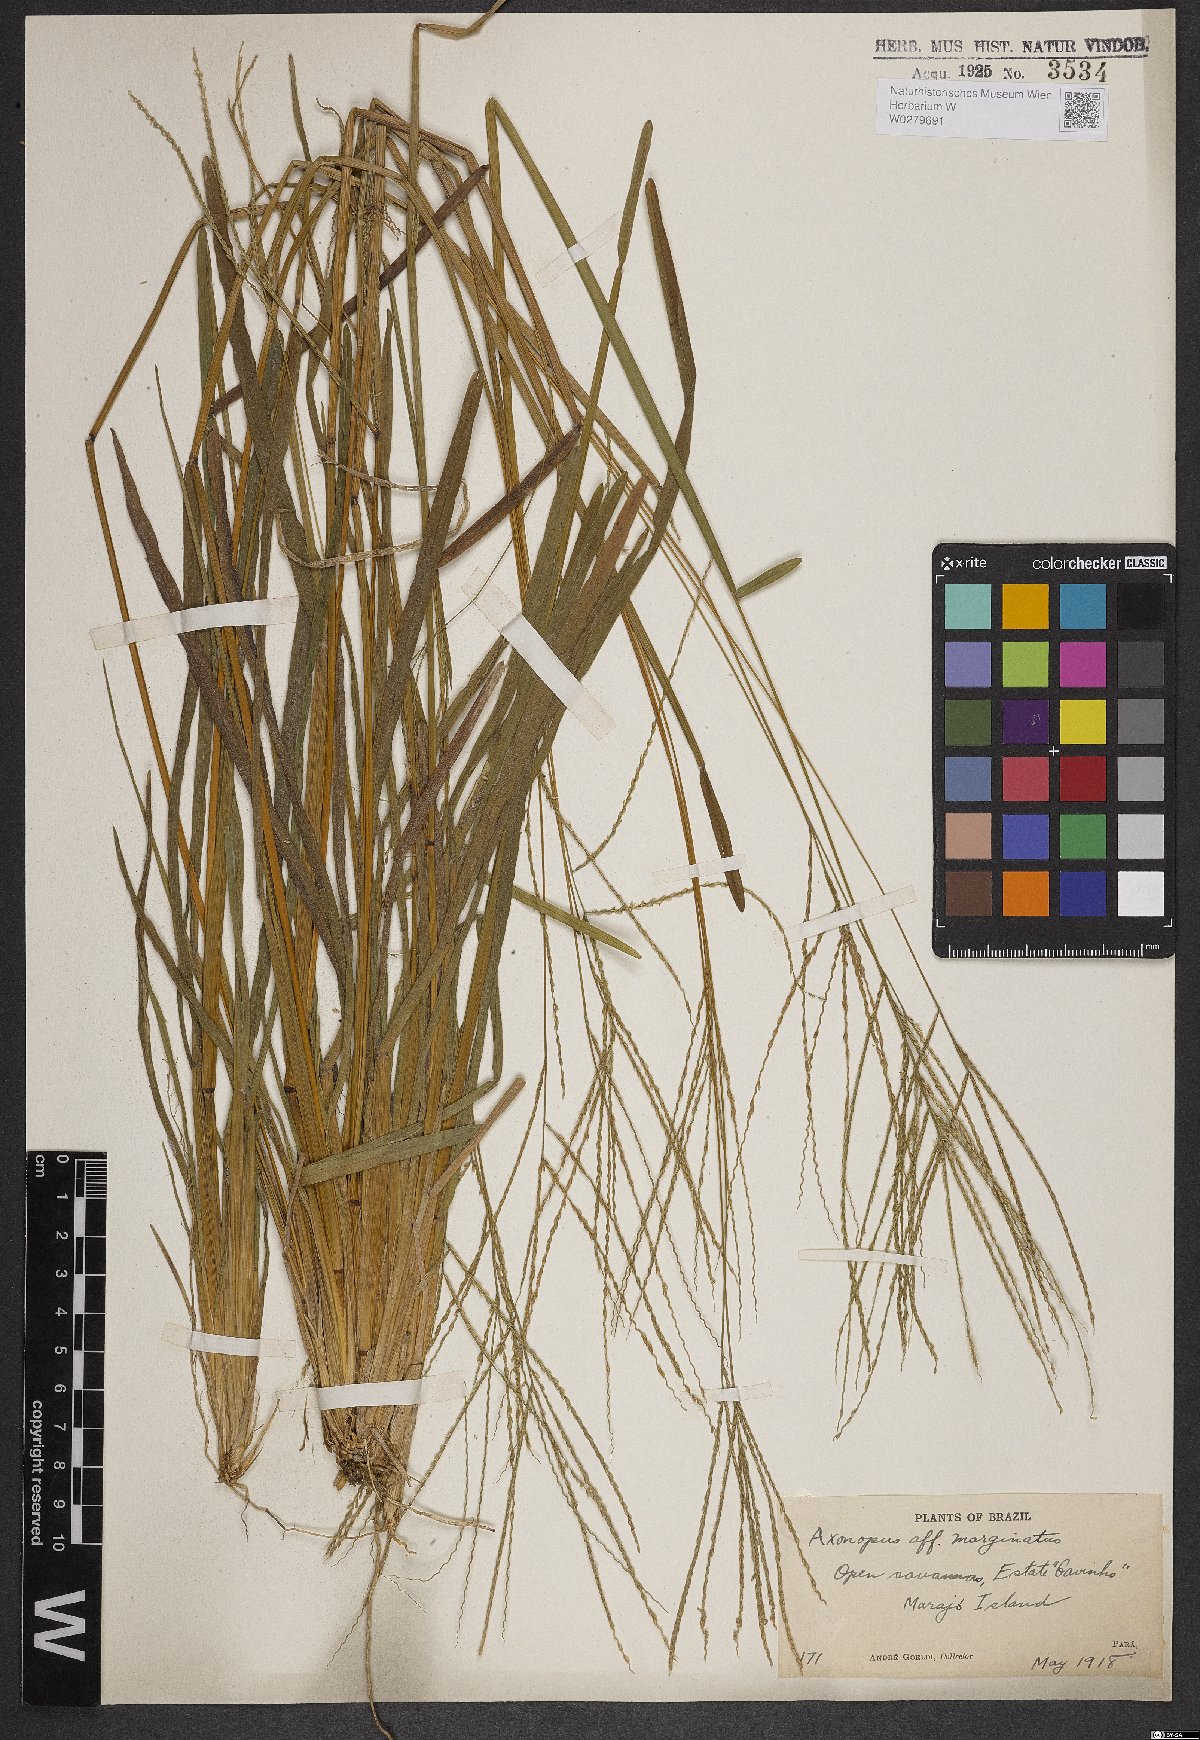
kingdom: Plantae
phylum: Tracheophyta
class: Liliopsida
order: Poales
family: Poaceae
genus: Axonopus
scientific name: Axonopus marginatus
